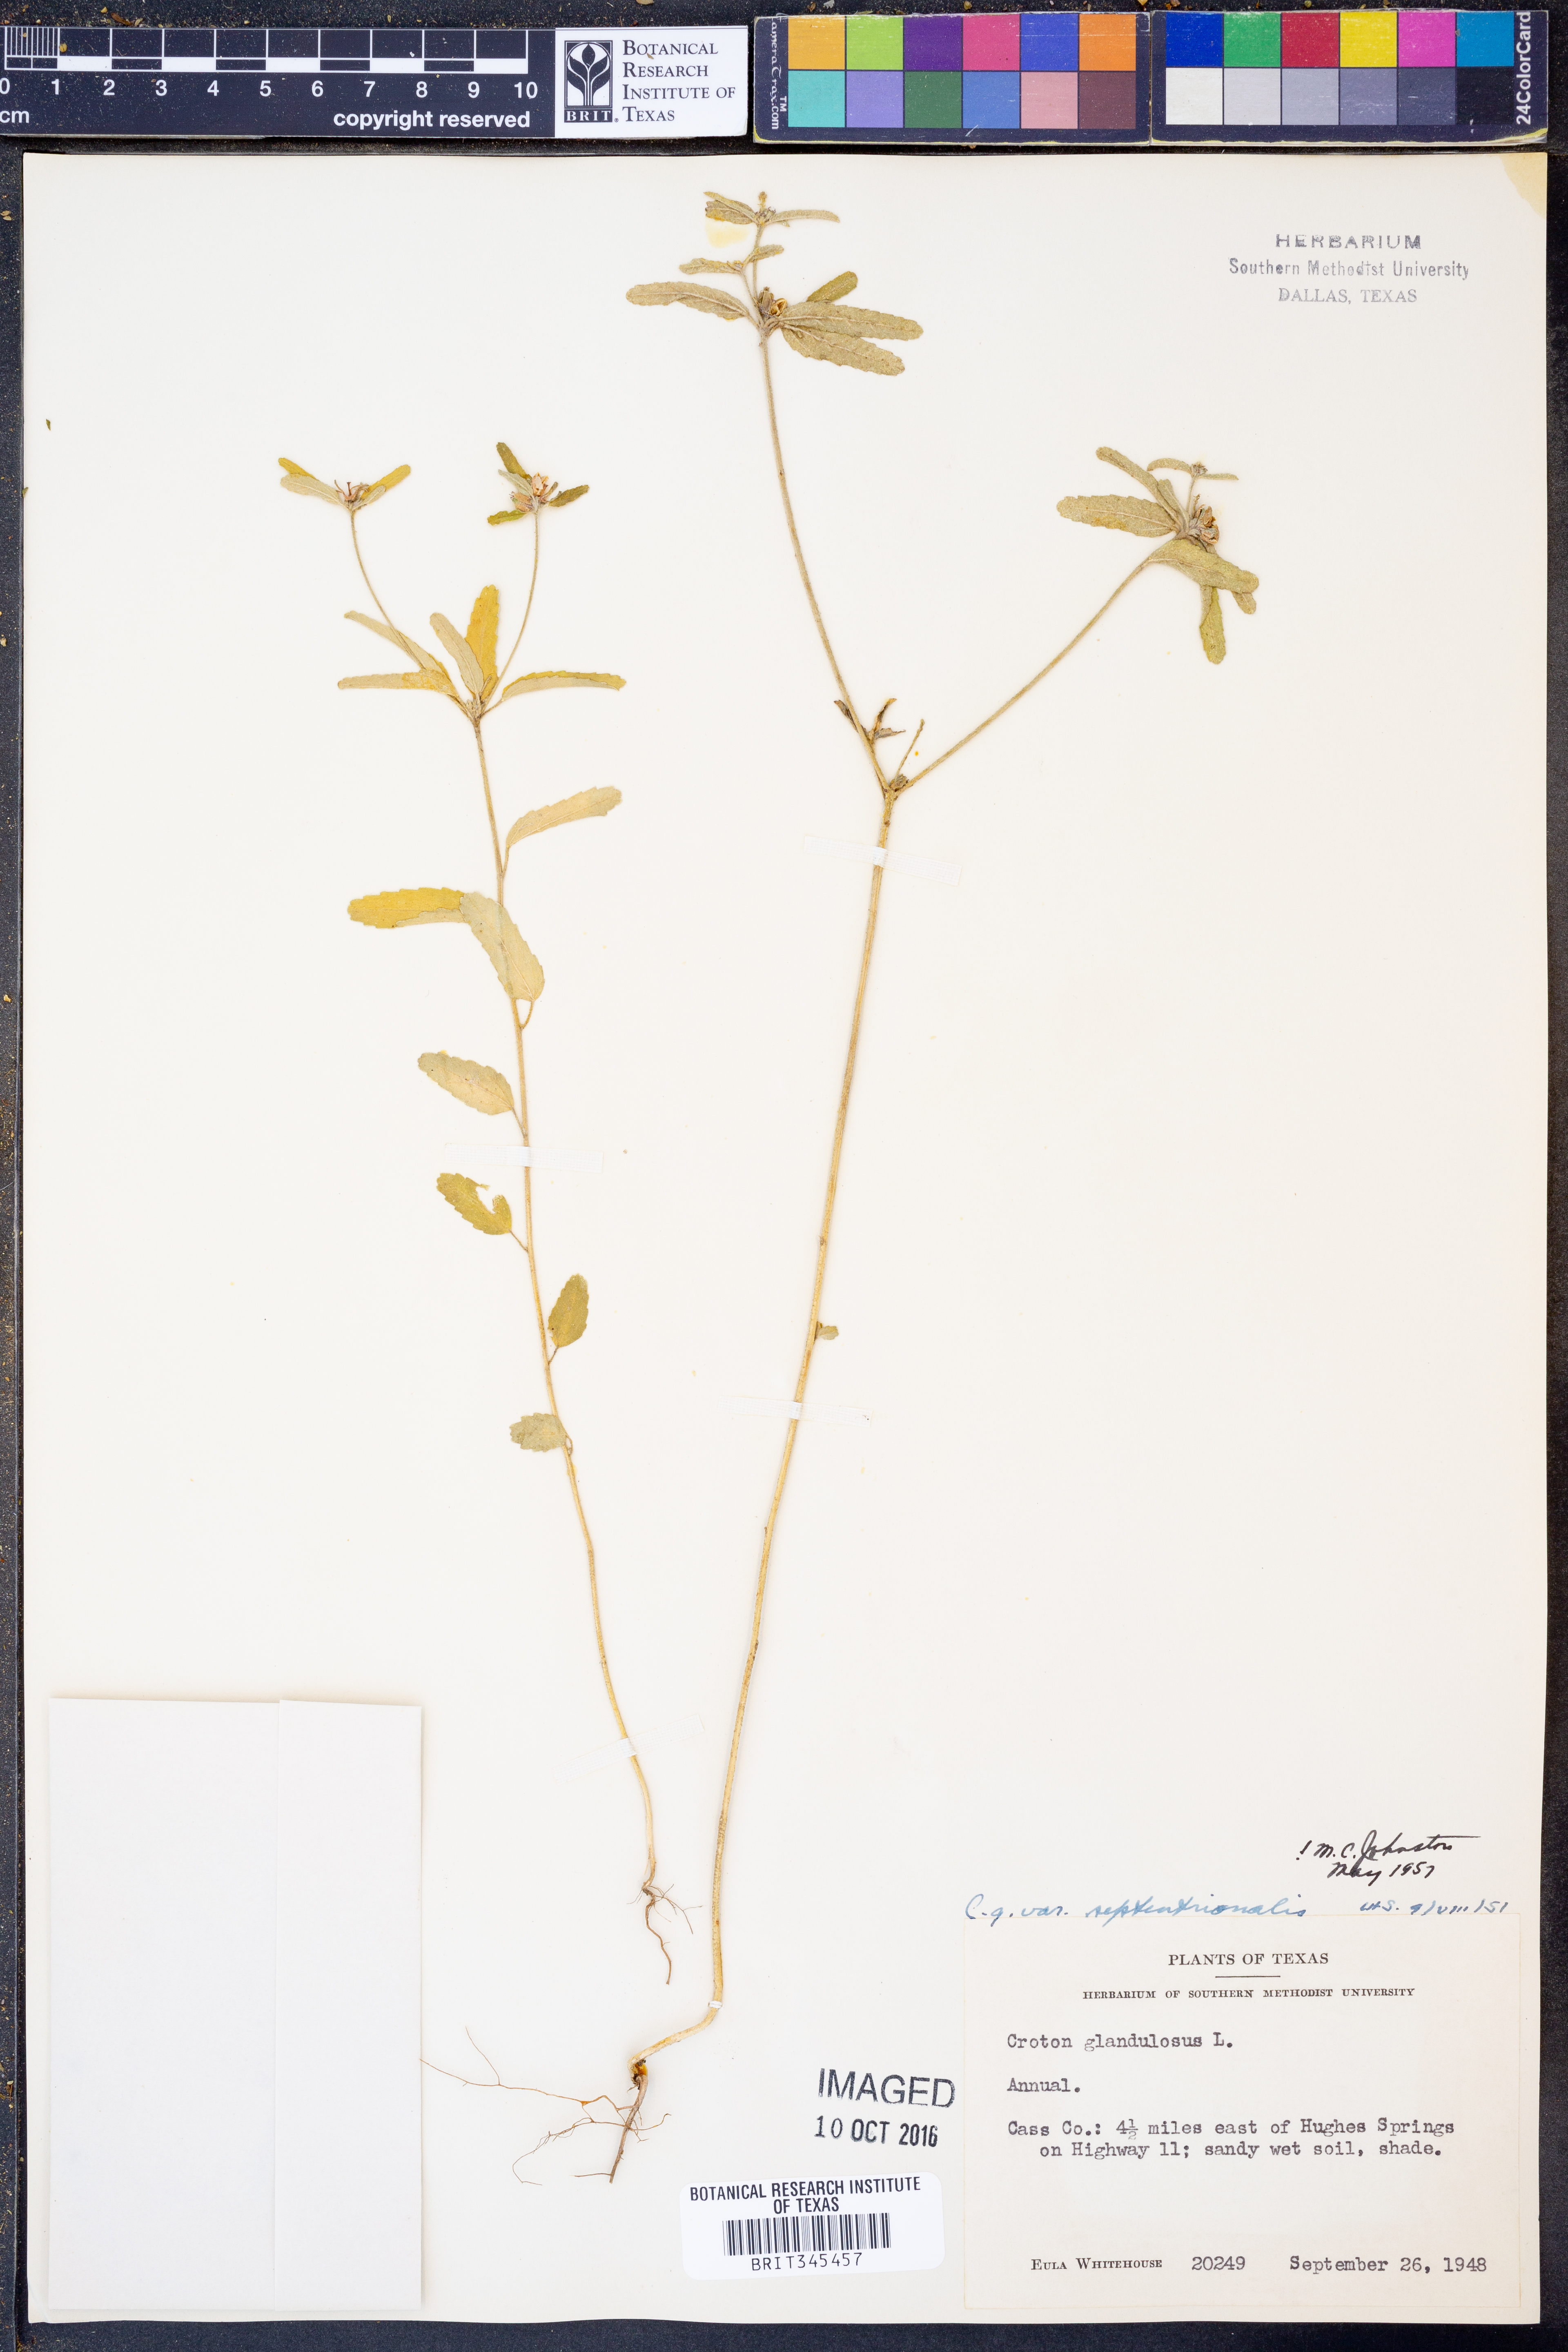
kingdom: Plantae
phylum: Tracheophyta
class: Magnoliopsida
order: Malpighiales
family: Euphorbiaceae
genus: Croton
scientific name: Croton glandulosus
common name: Tropic croton
